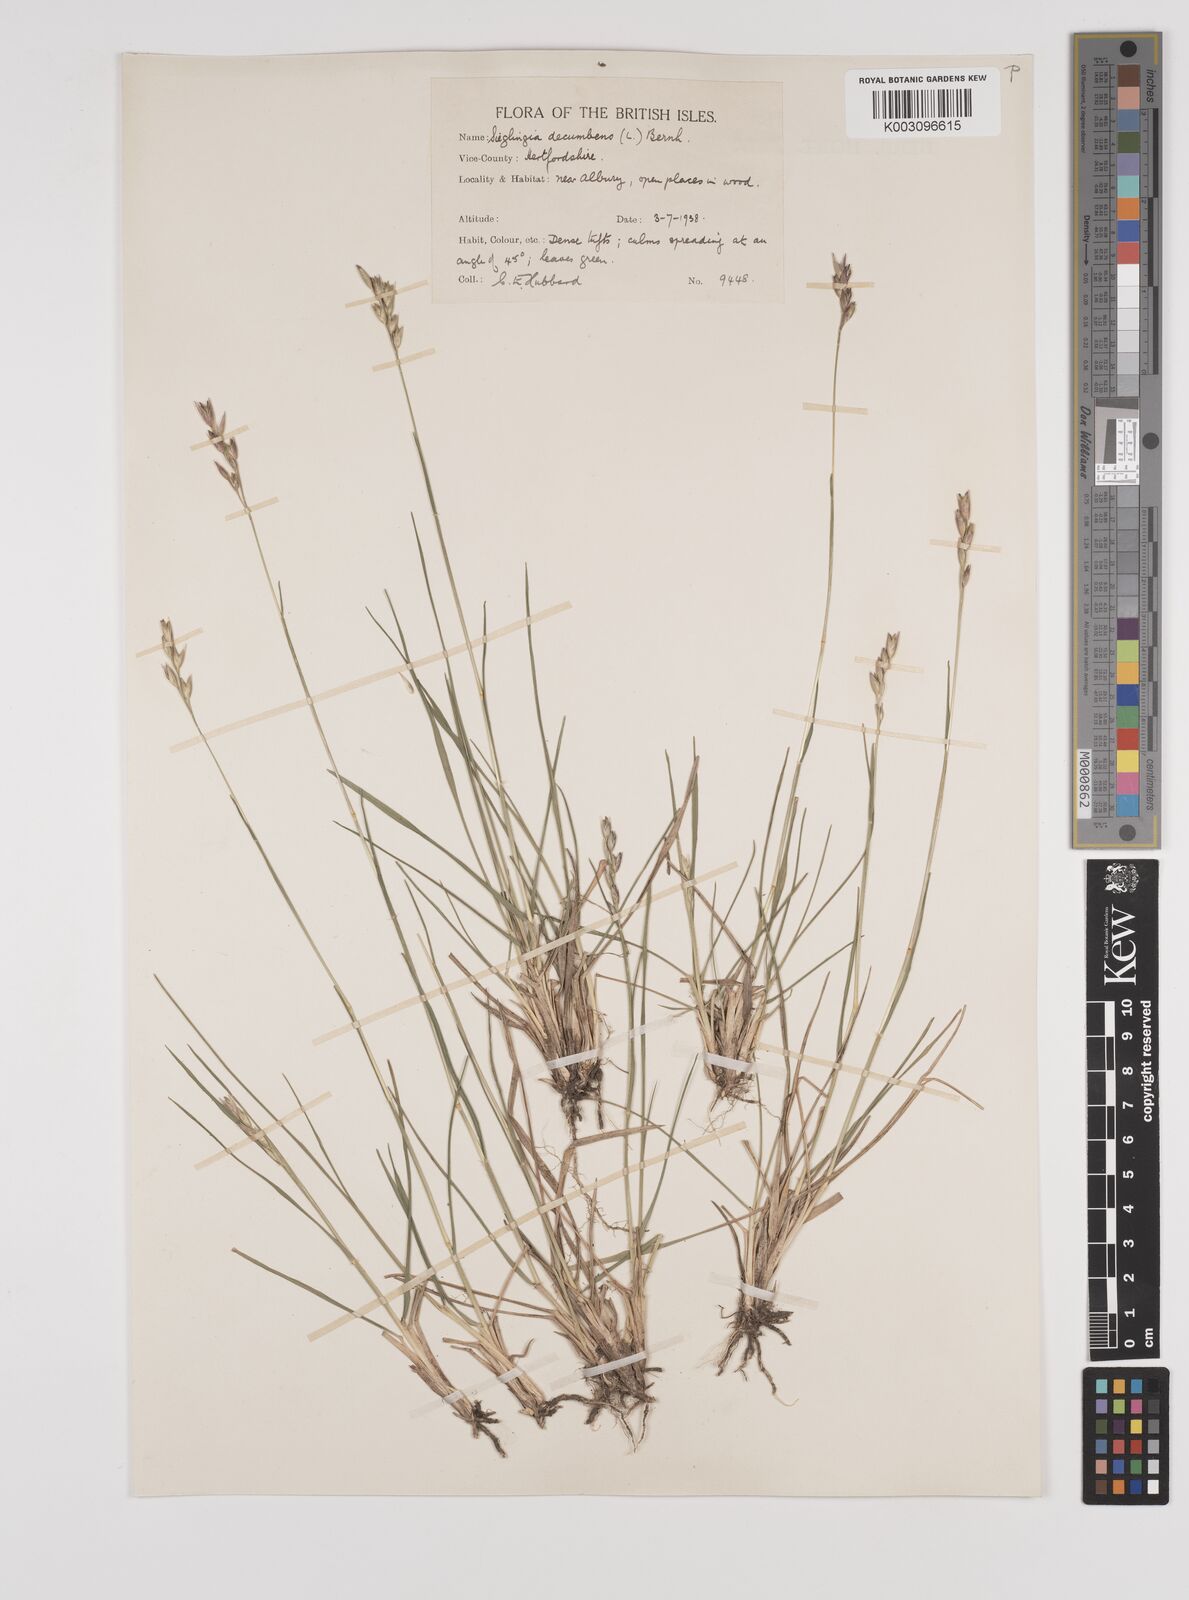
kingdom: Plantae
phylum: Tracheophyta
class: Liliopsida
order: Poales
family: Poaceae
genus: Danthonia
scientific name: Danthonia decumbens
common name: Common heathgrass
